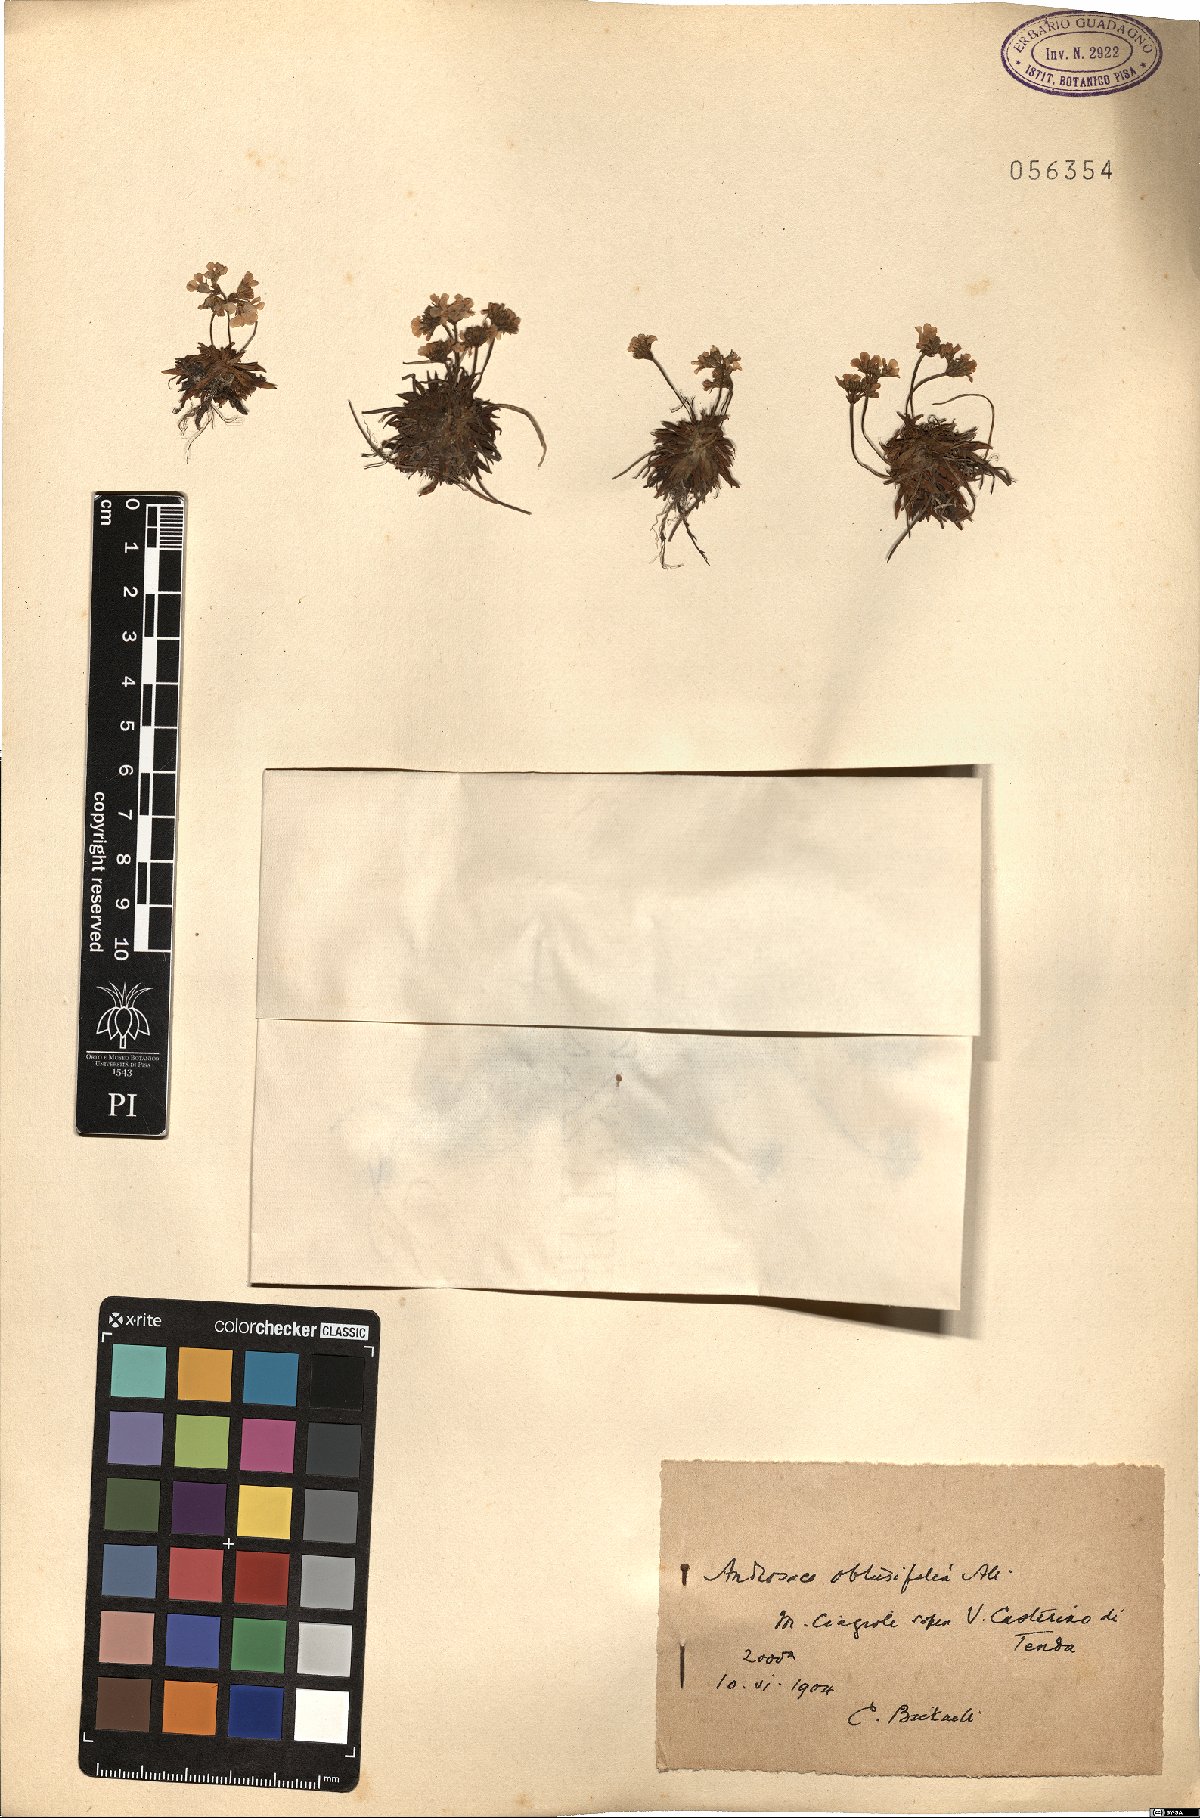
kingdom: Plantae
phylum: Tracheophyta
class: Magnoliopsida
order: Ericales
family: Primulaceae
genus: Androsace
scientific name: Androsace obtusifolia
